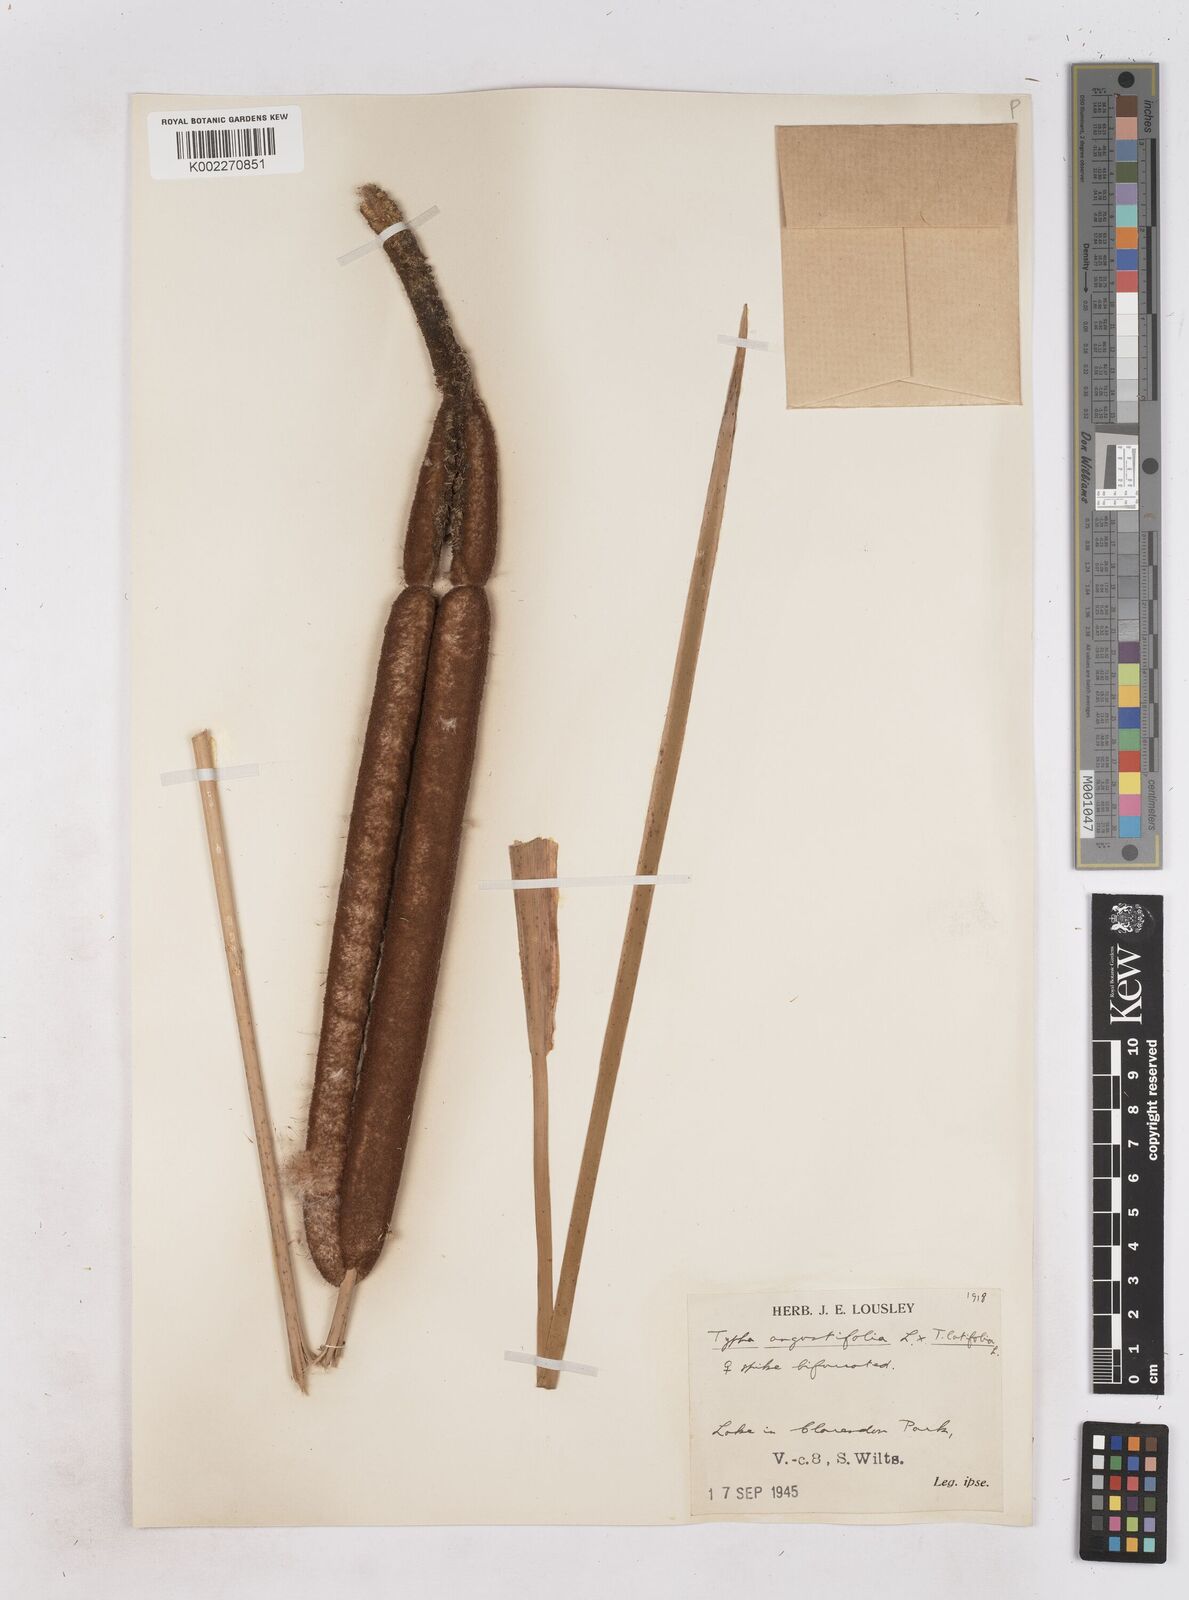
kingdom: Plantae
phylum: Tracheophyta
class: Liliopsida
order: Poales
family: Typhaceae
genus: Typha
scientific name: Typha angustifolia
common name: Lesser bulrush
